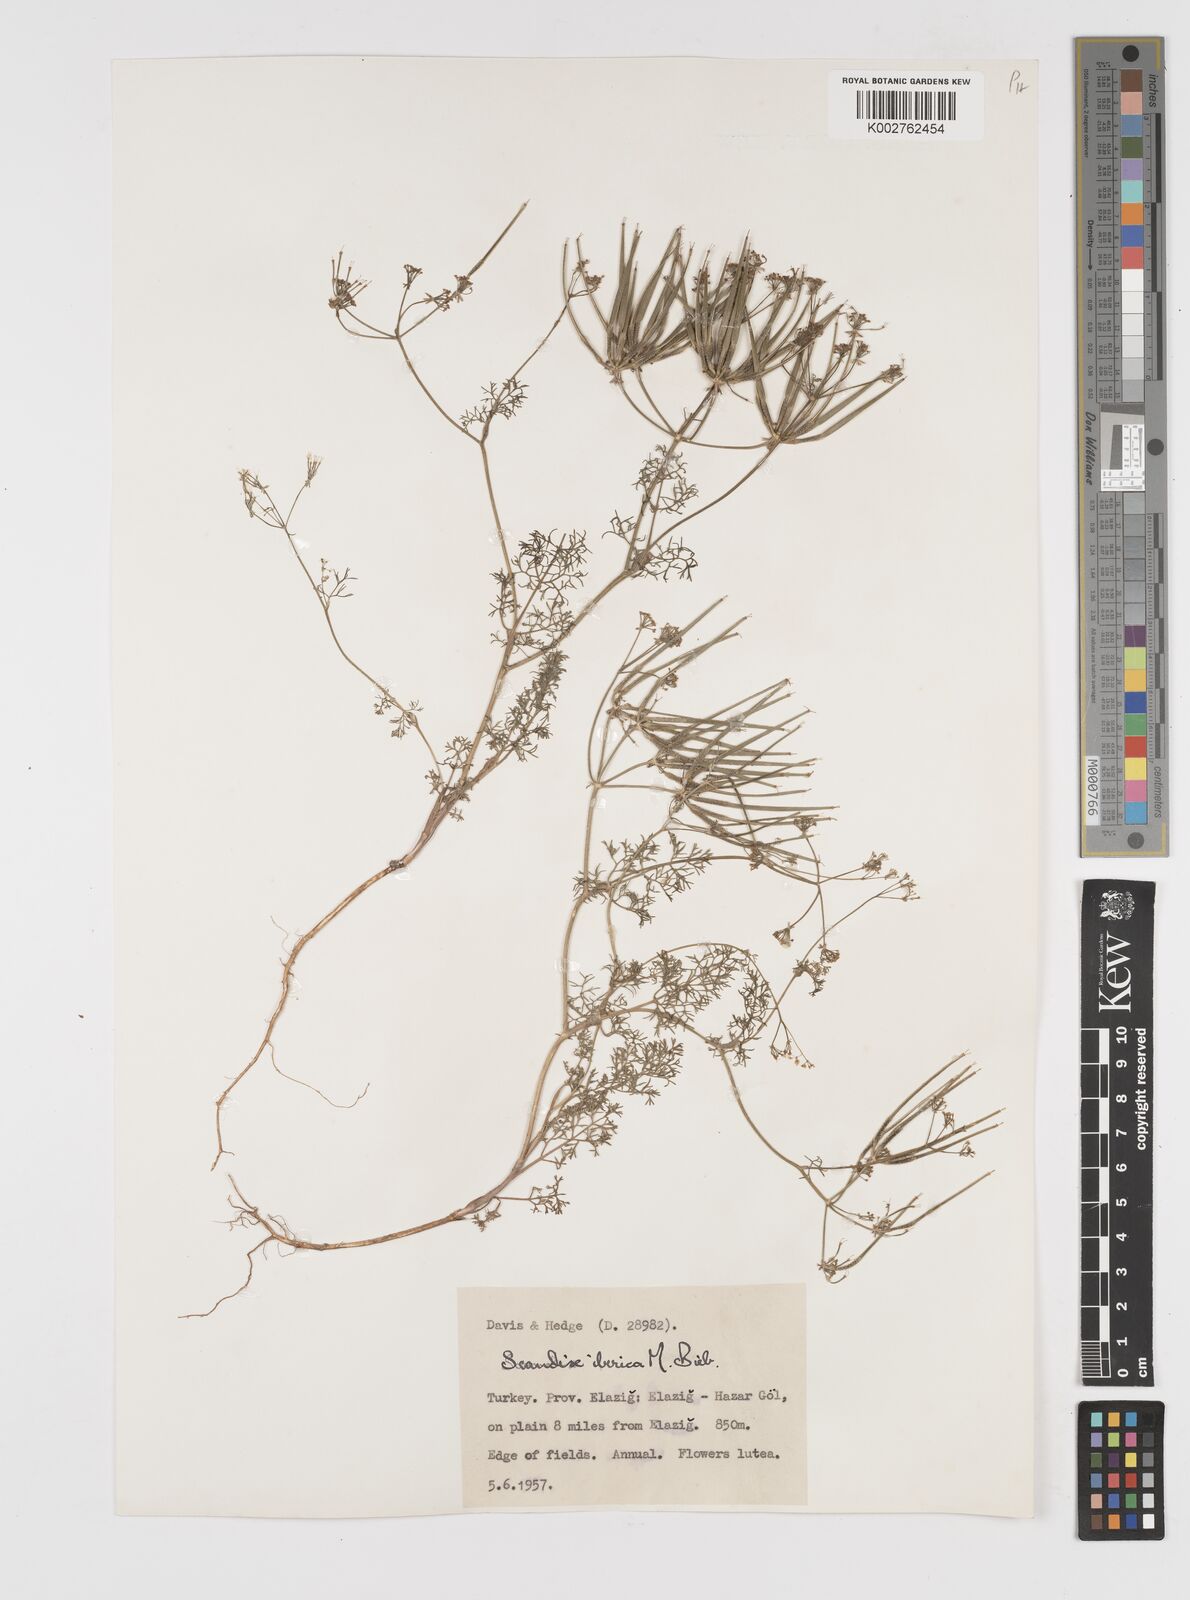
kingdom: Plantae
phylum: Tracheophyta
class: Magnoliopsida
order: Apiales
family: Apiaceae
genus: Scandix
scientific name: Scandix iberica
